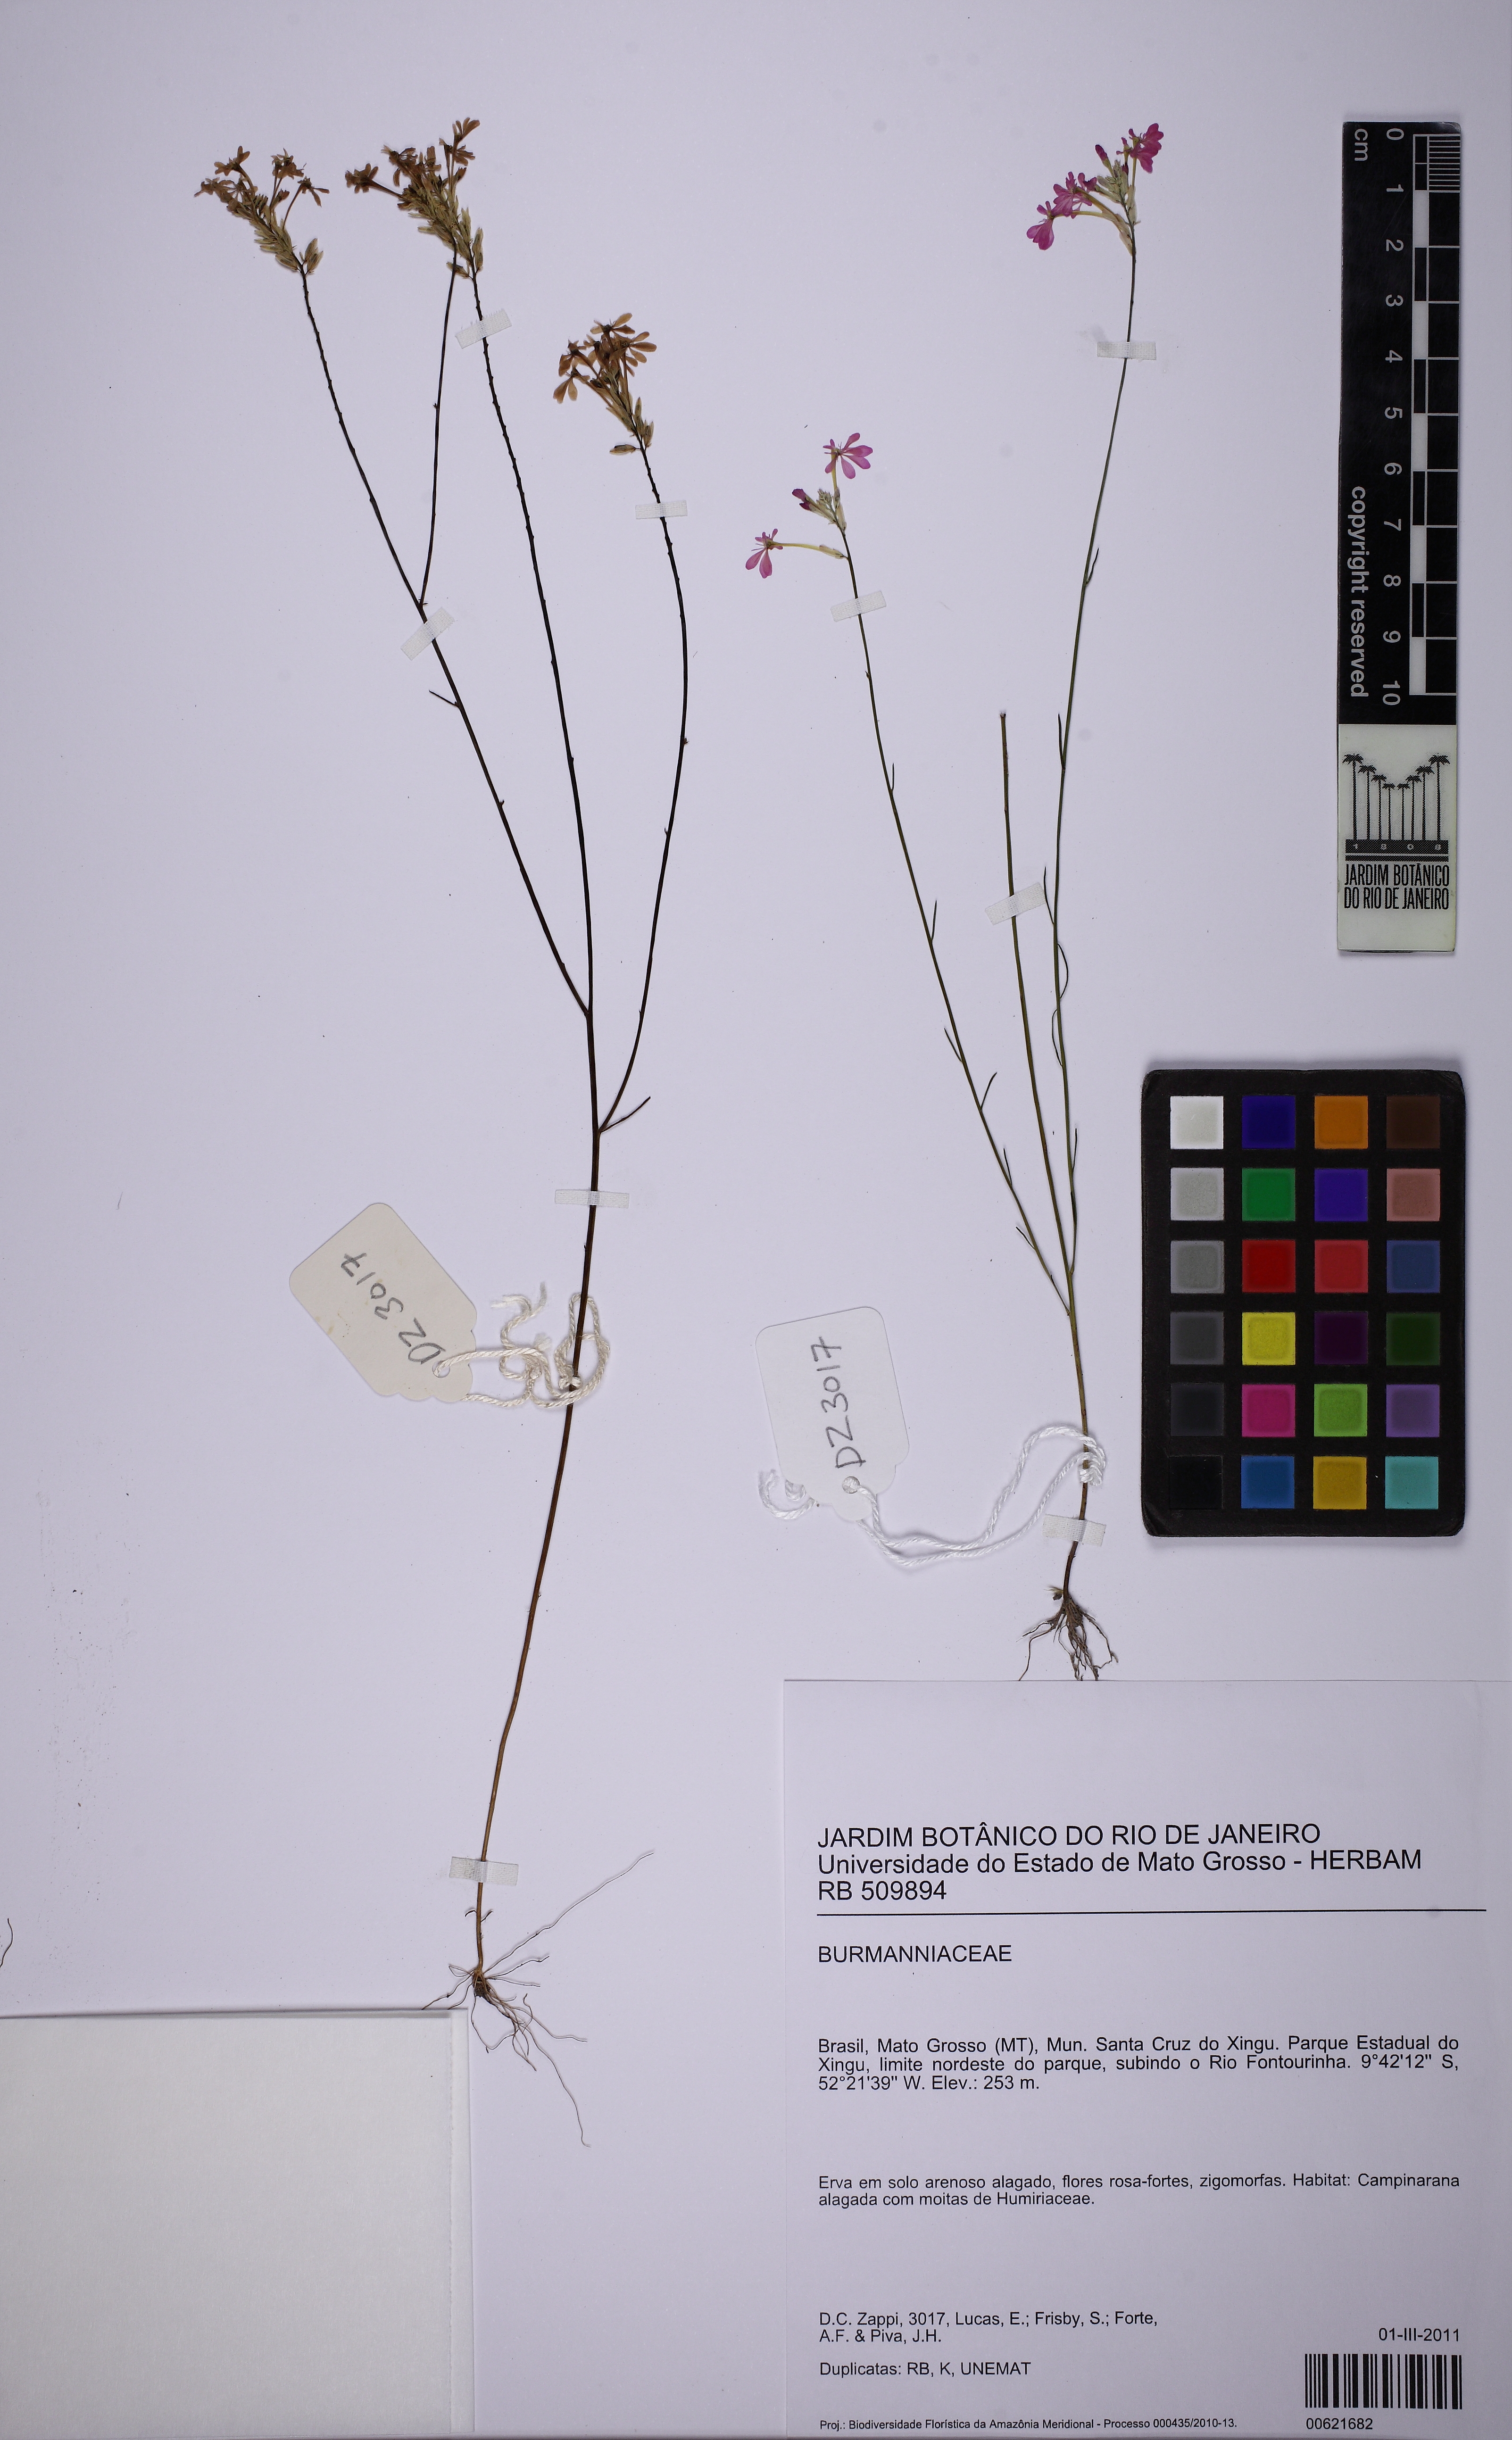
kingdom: Plantae
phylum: Tracheophyta
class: Liliopsida
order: Dioscoreales
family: Burmanniaceae
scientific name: Burmanniaceae
